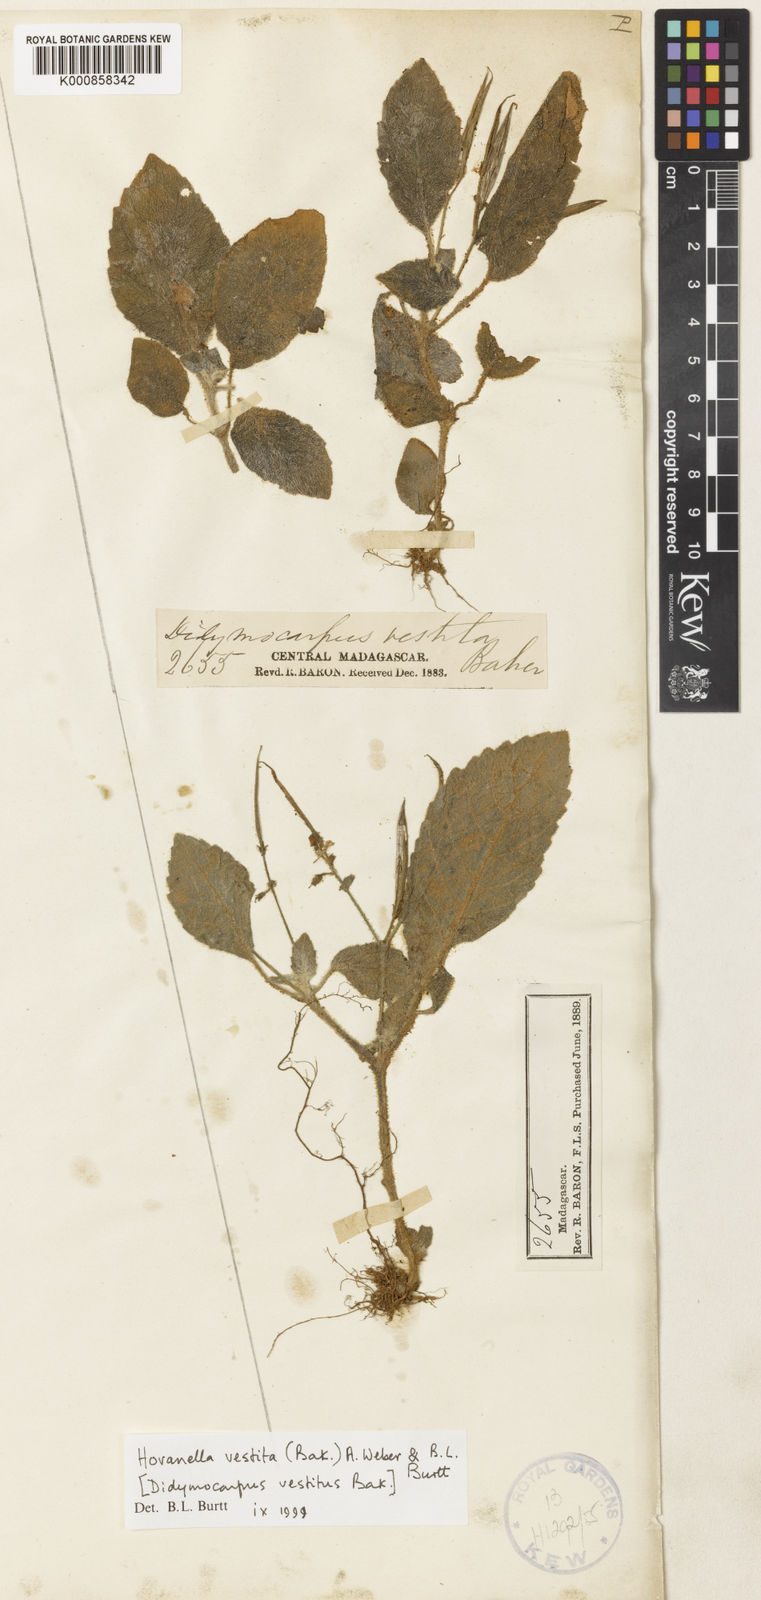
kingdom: Plantae
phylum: Tracheophyta
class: Magnoliopsida
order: Lamiales
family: Gesneriaceae
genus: Streptocarpus
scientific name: Streptocarpus vestitus
